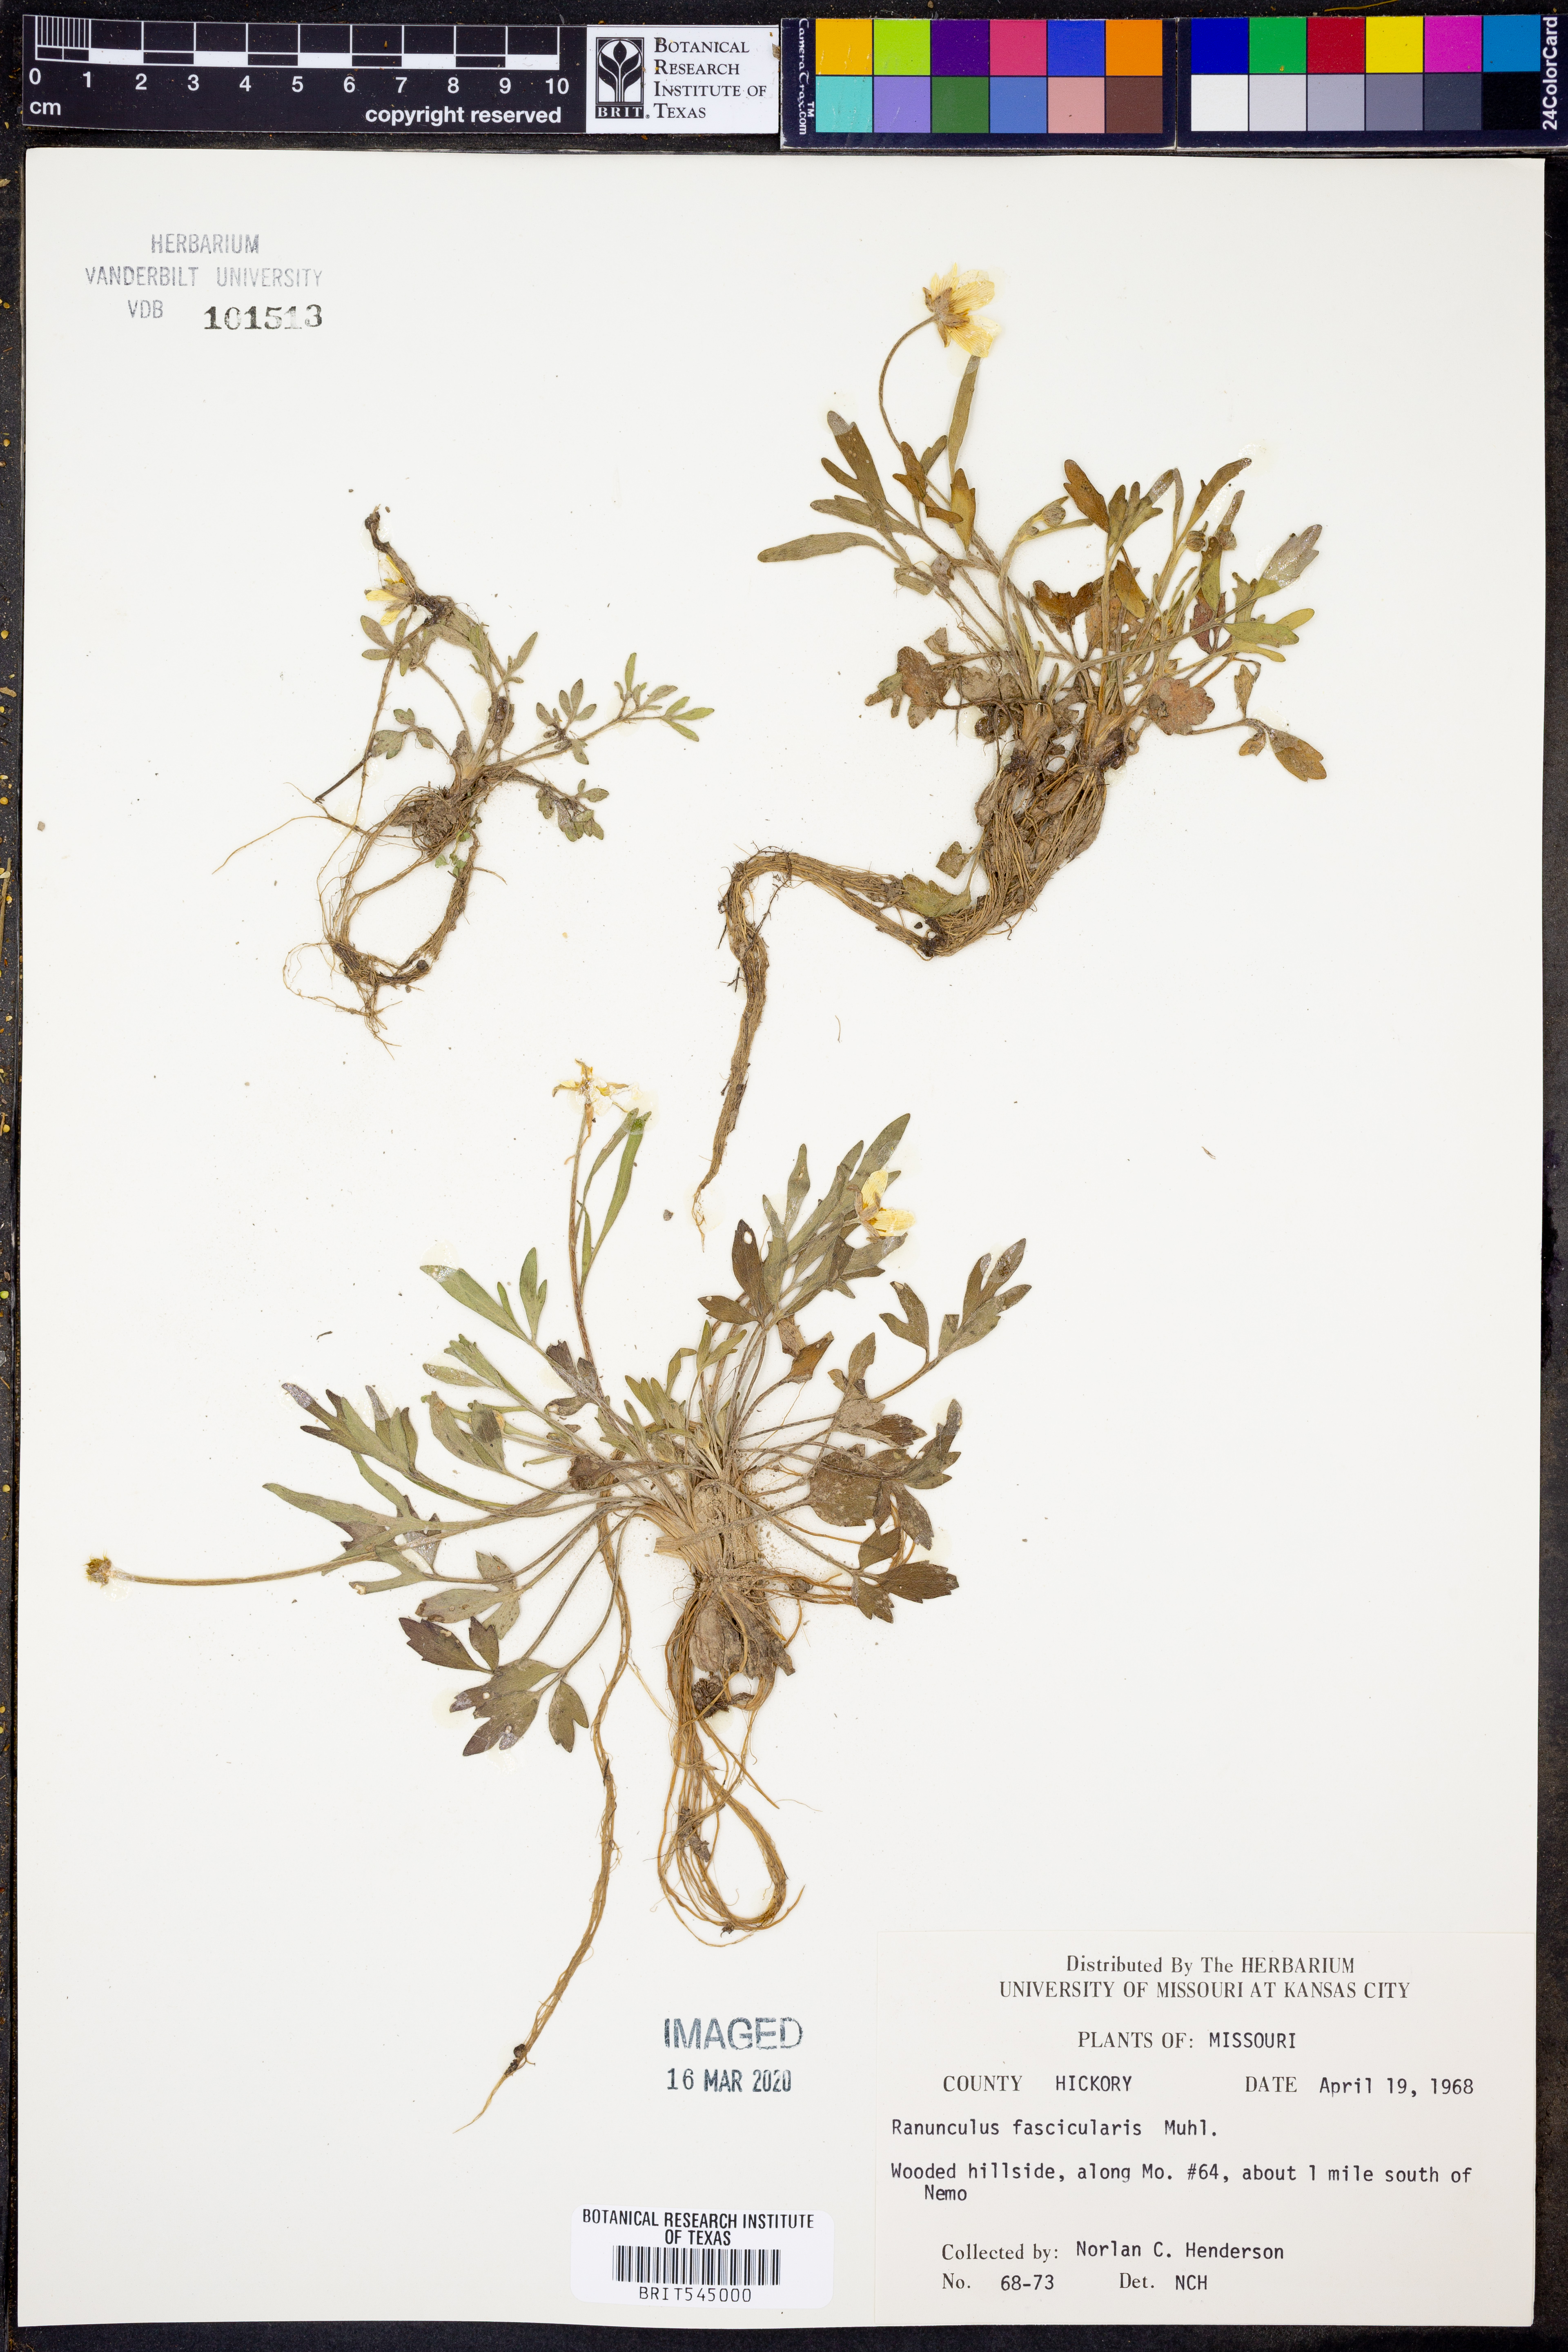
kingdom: Plantae
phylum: Tracheophyta
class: Magnoliopsida
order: Ranunculales
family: Ranunculaceae
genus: Ranunculus
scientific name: Ranunculus fascicularis
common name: Early buttercup
